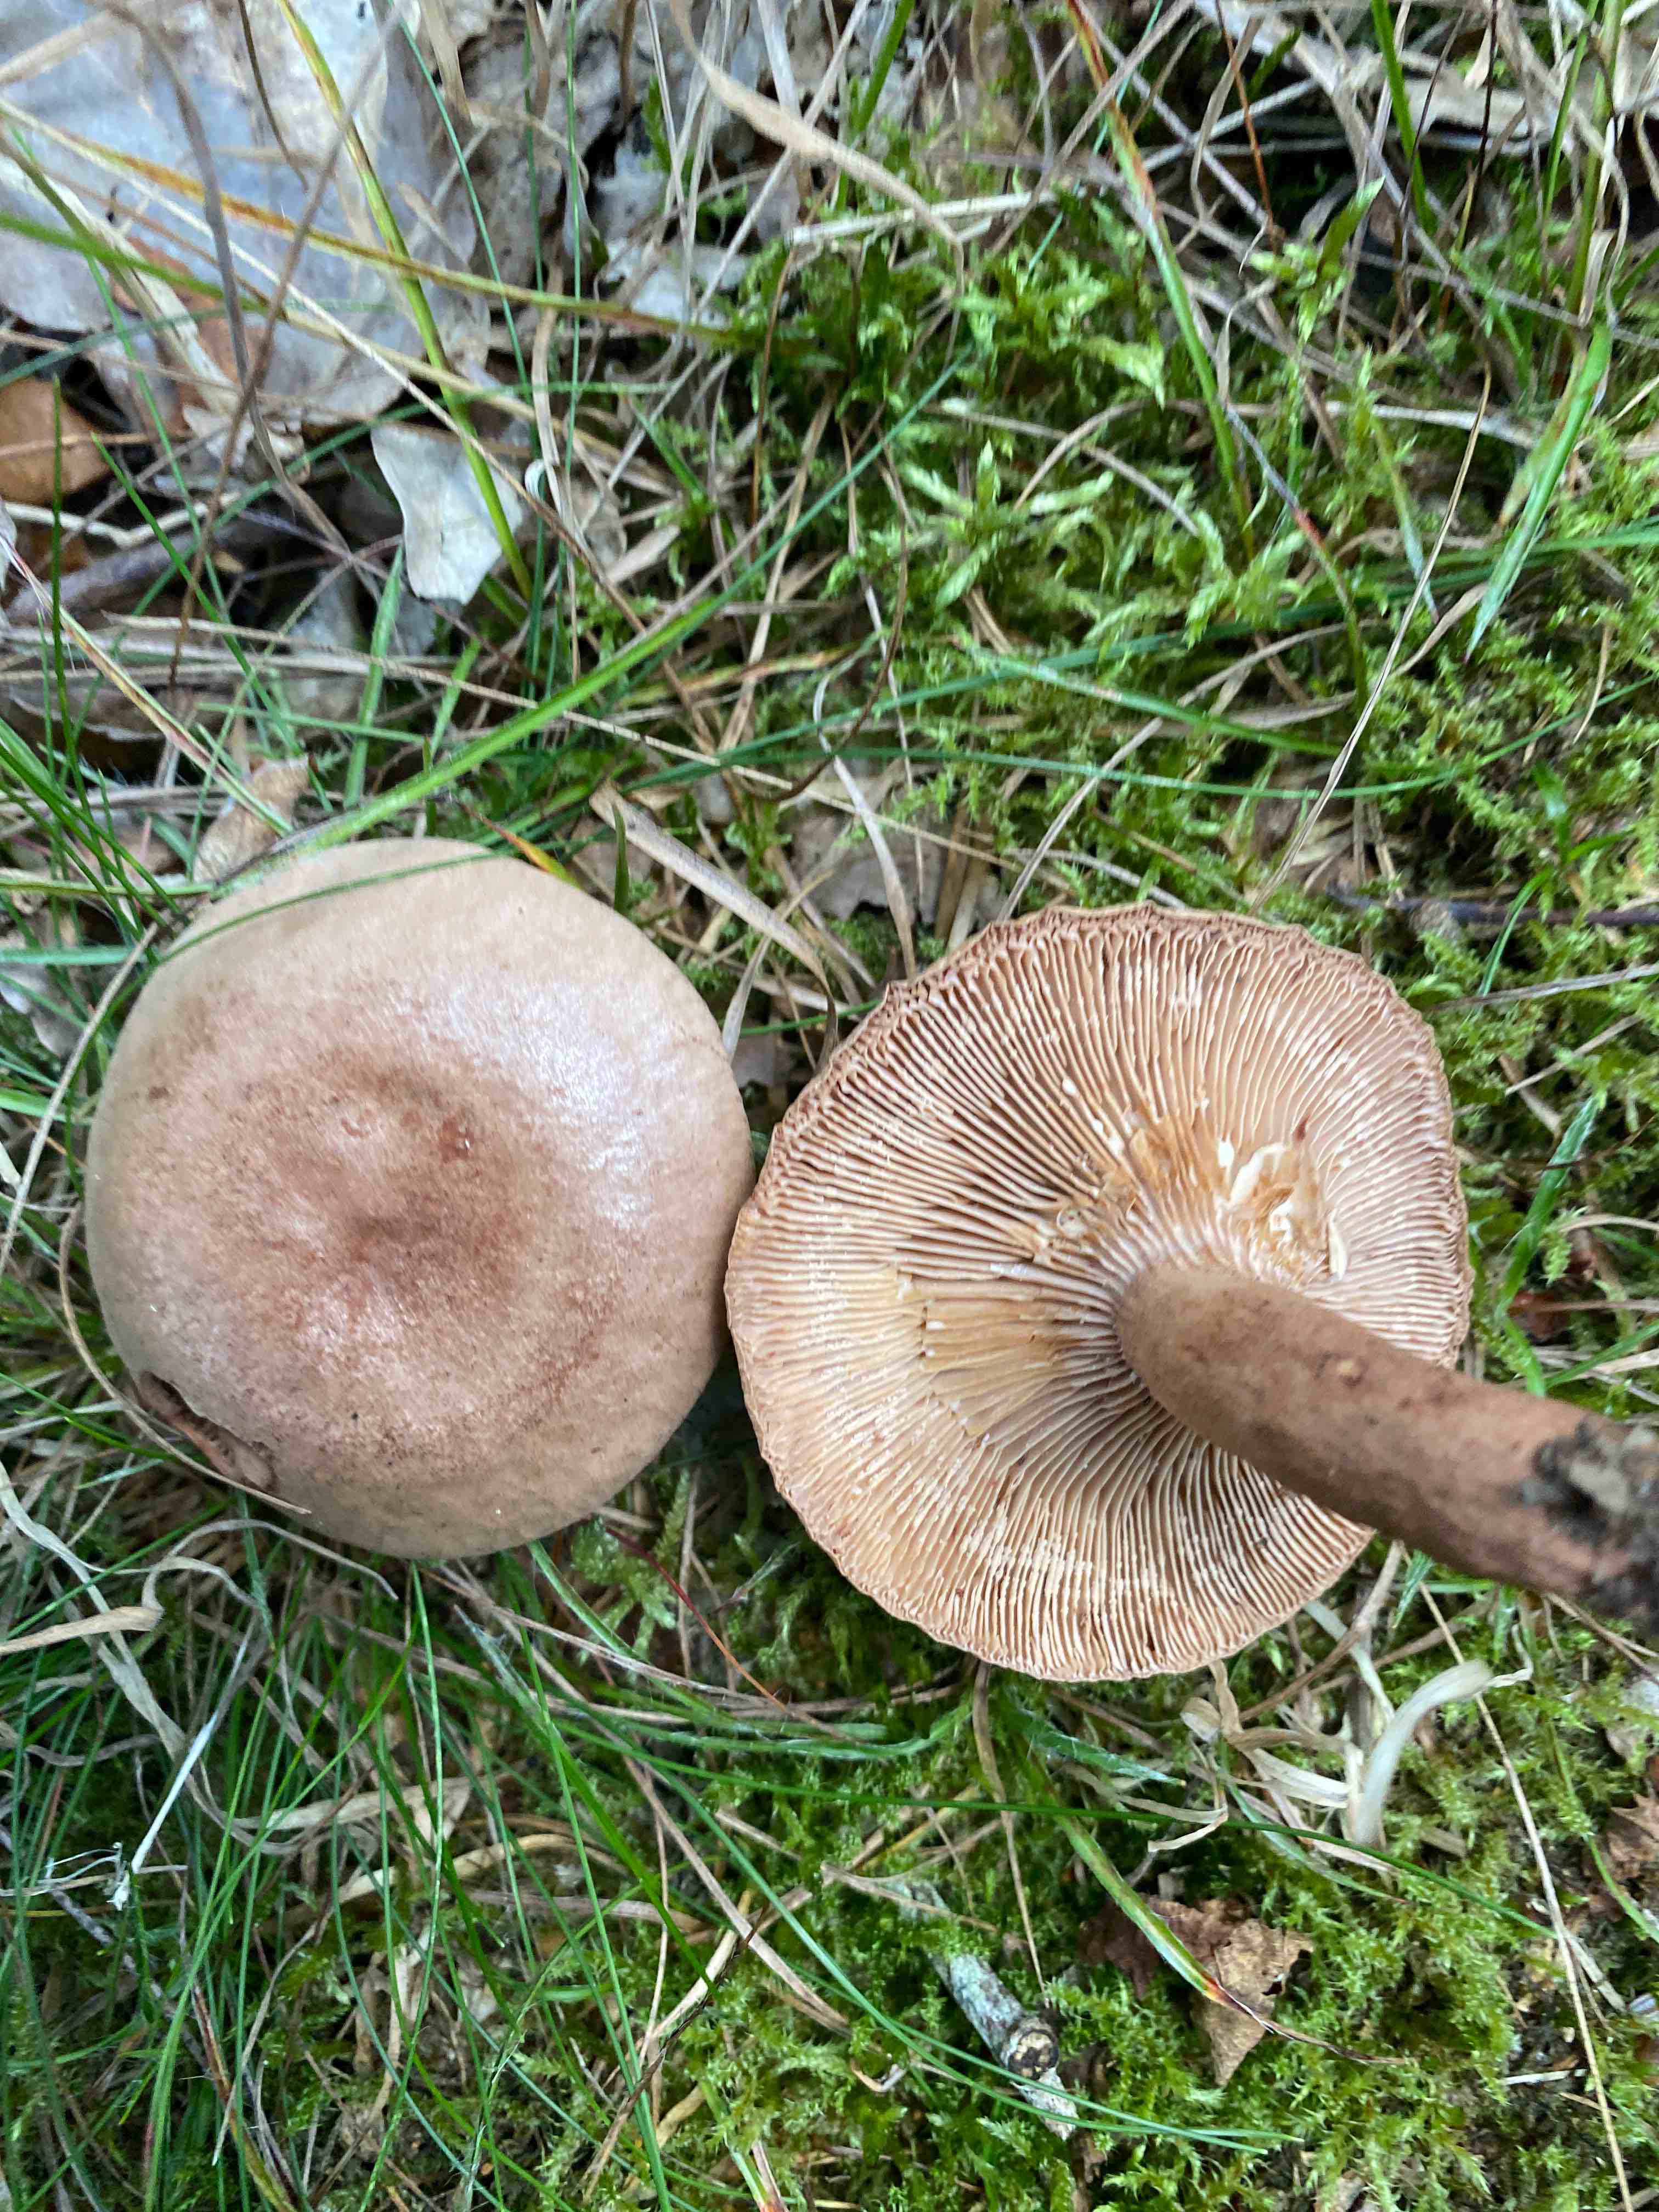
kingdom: Fungi
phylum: Basidiomycota
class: Agaricomycetes
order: Russulales
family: Russulaceae
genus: Lactarius
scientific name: Lactarius quietus
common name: ege-mælkehat
